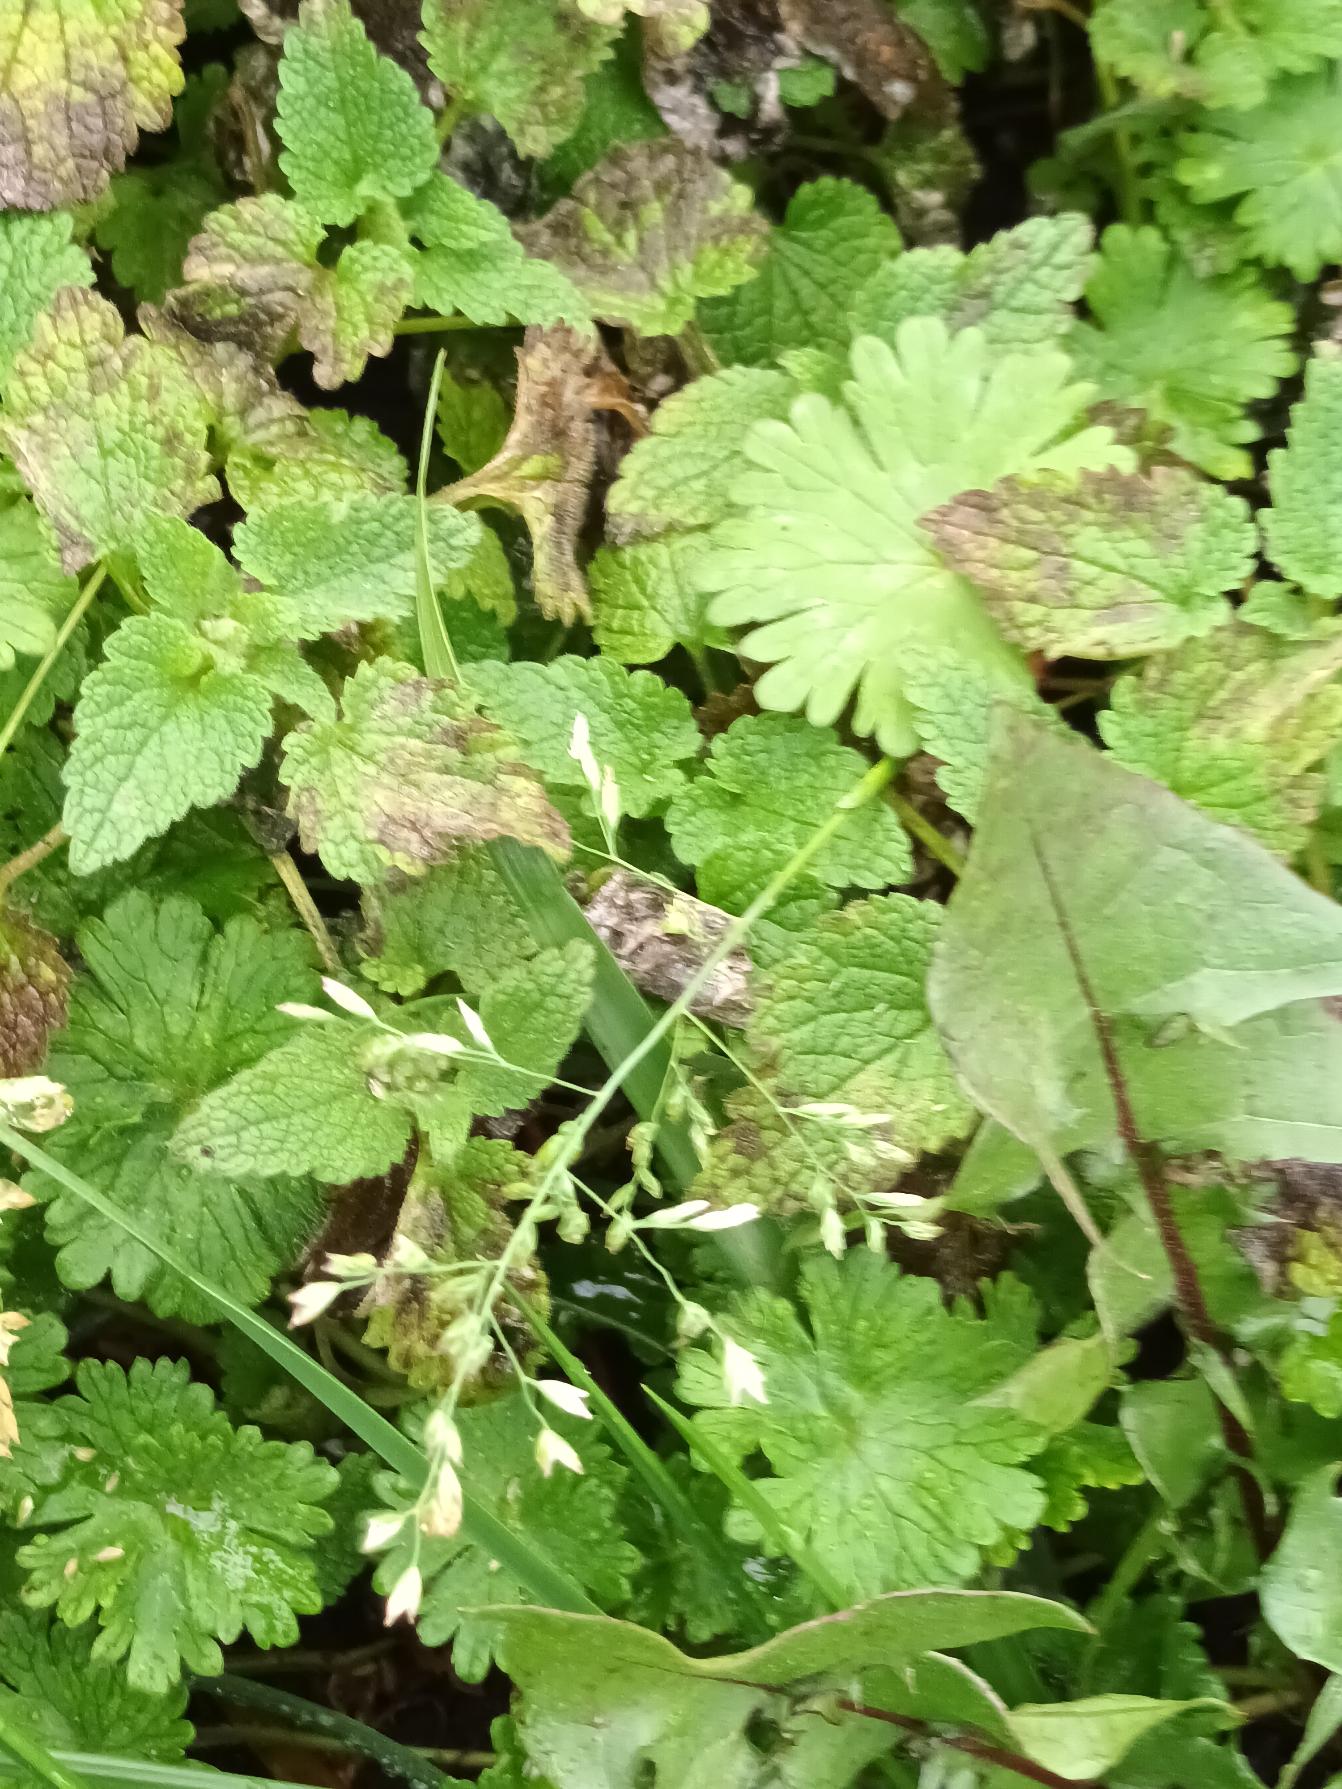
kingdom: Plantae
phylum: Tracheophyta
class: Liliopsida
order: Poales
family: Poaceae
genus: Poa
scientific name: Poa annua
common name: Enårig rapgræs
